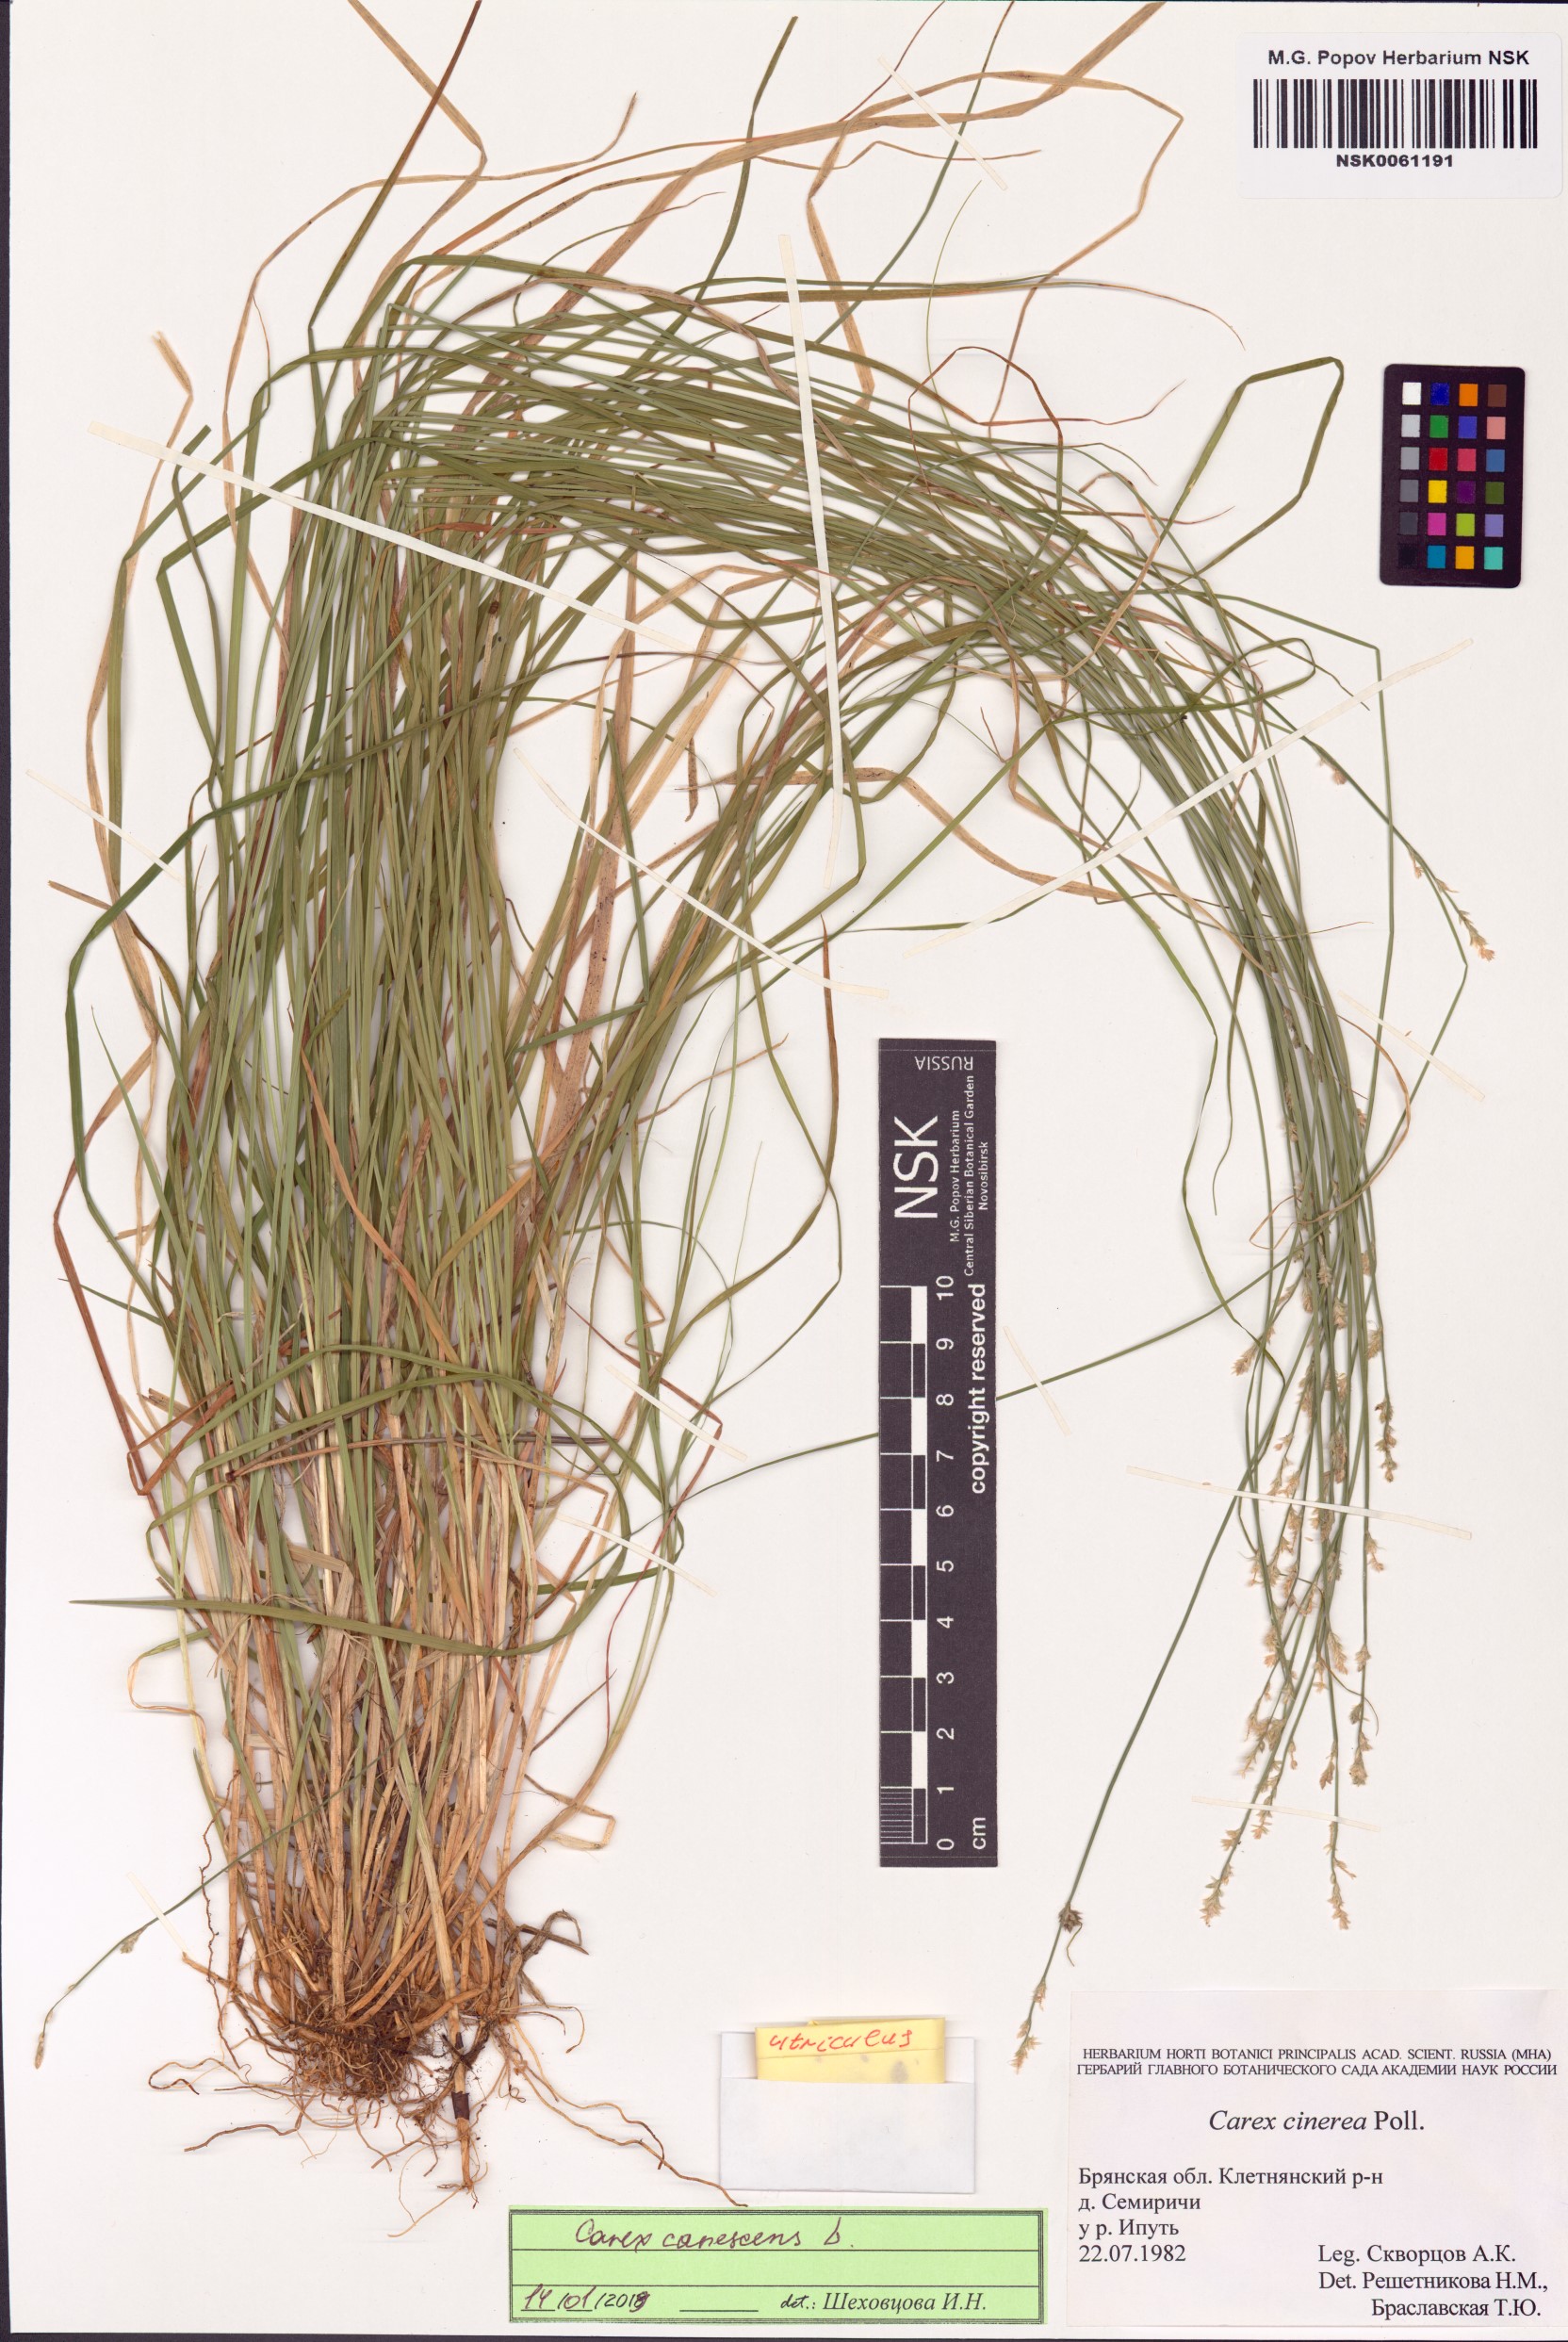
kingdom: Plantae
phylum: Tracheophyta
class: Liliopsida
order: Poales
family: Cyperaceae
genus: Carex
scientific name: Carex canescens
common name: White sedge
